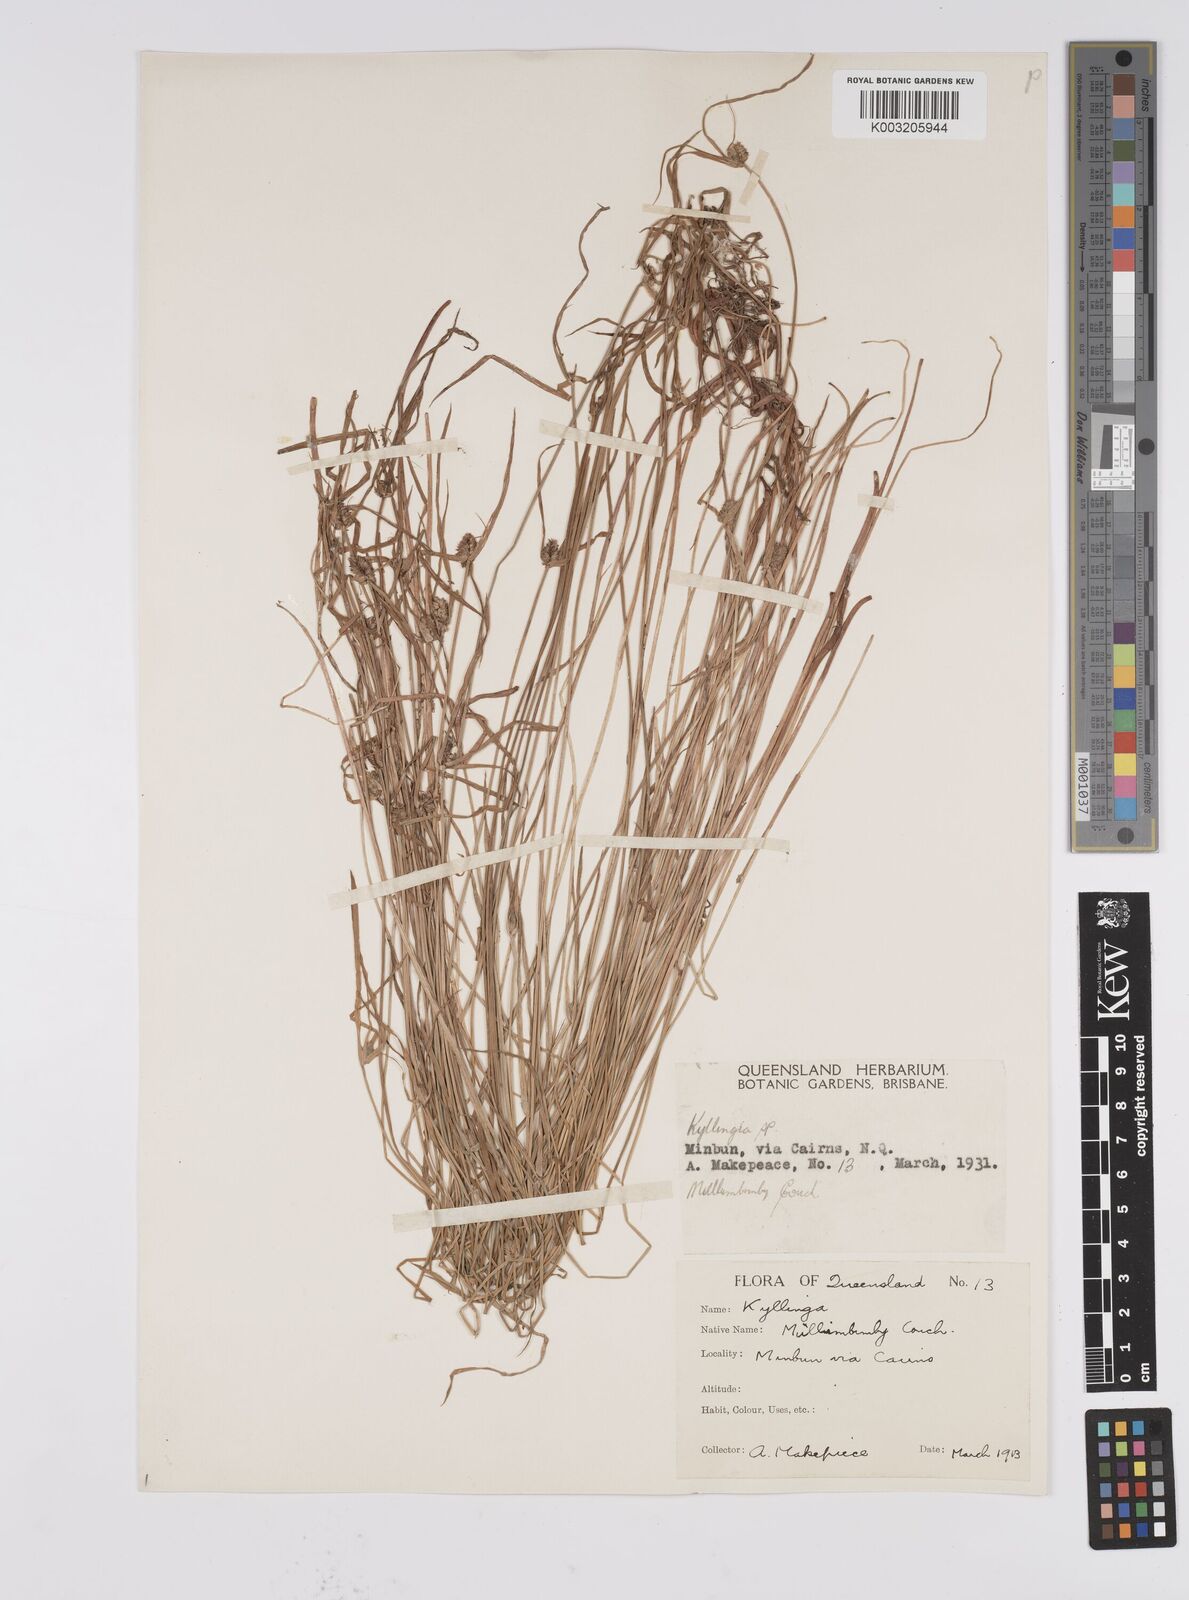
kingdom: Plantae
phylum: Tracheophyta
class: Liliopsida
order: Poales
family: Cyperaceae
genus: Cyperus
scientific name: Cyperus brevifolius
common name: Globe kyllinga
